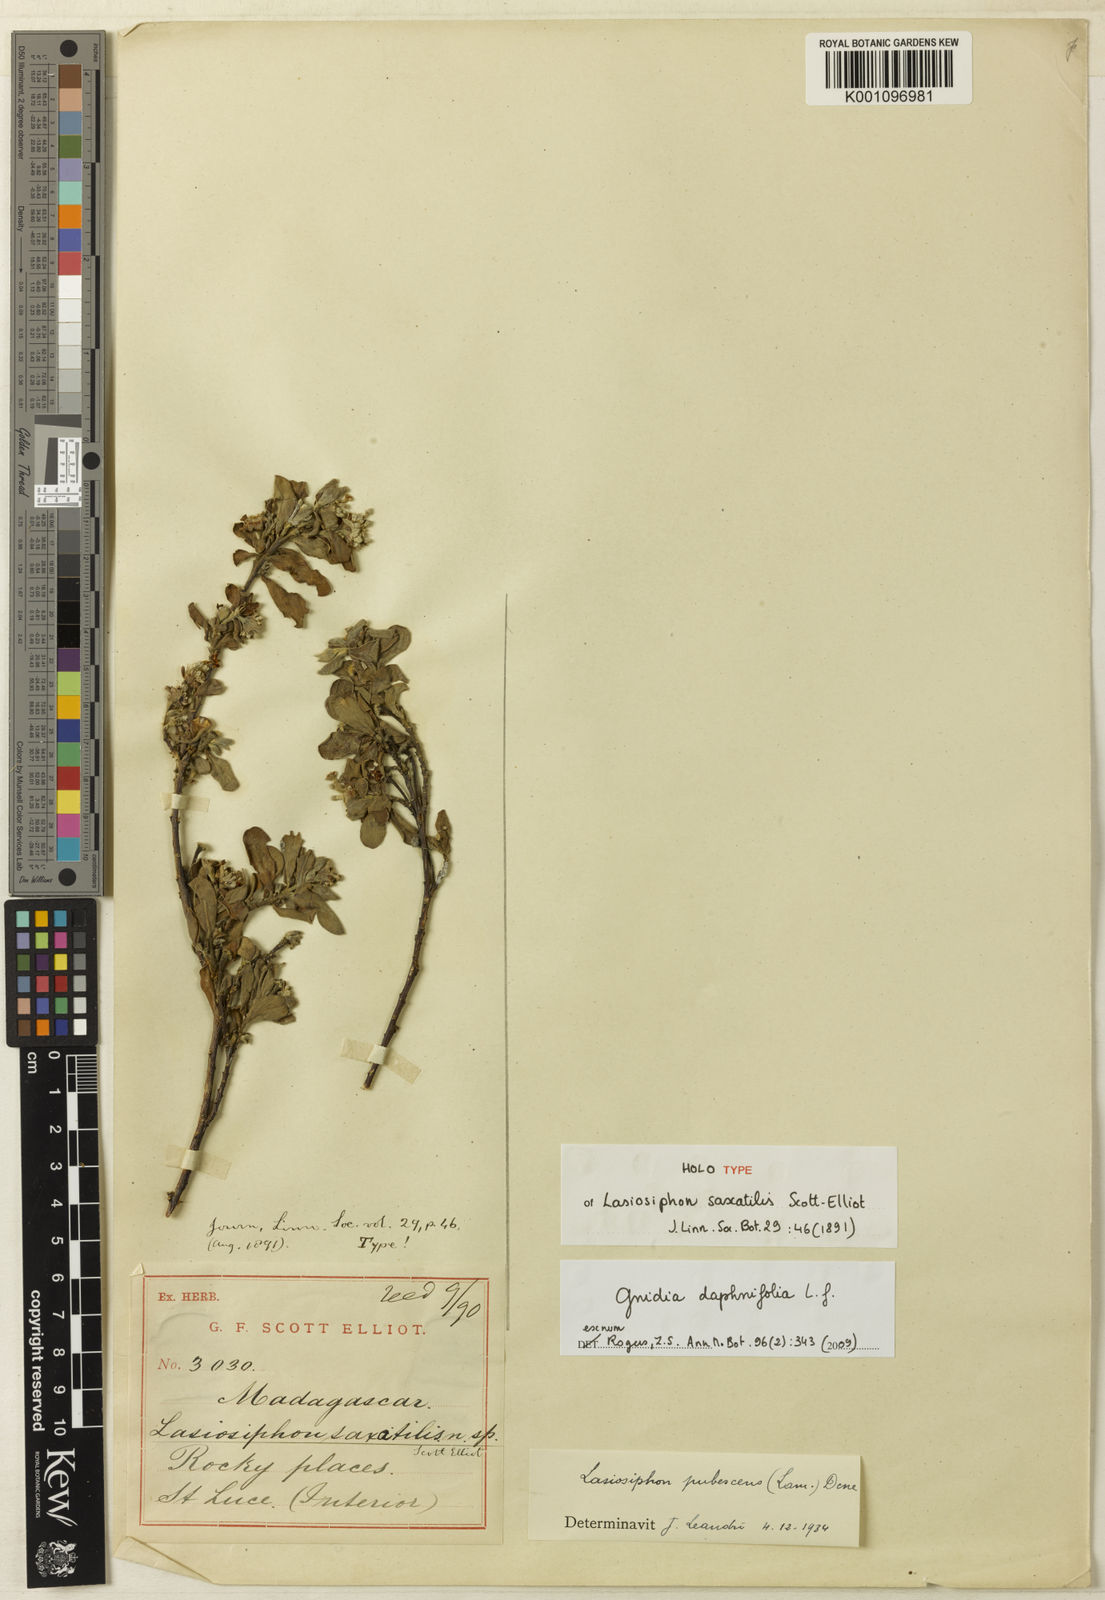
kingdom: Plantae
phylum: Tracheophyta
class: Magnoliopsida
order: Malvales
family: Thymelaeaceae
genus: Gnidia
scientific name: Gnidia daphnifolia
